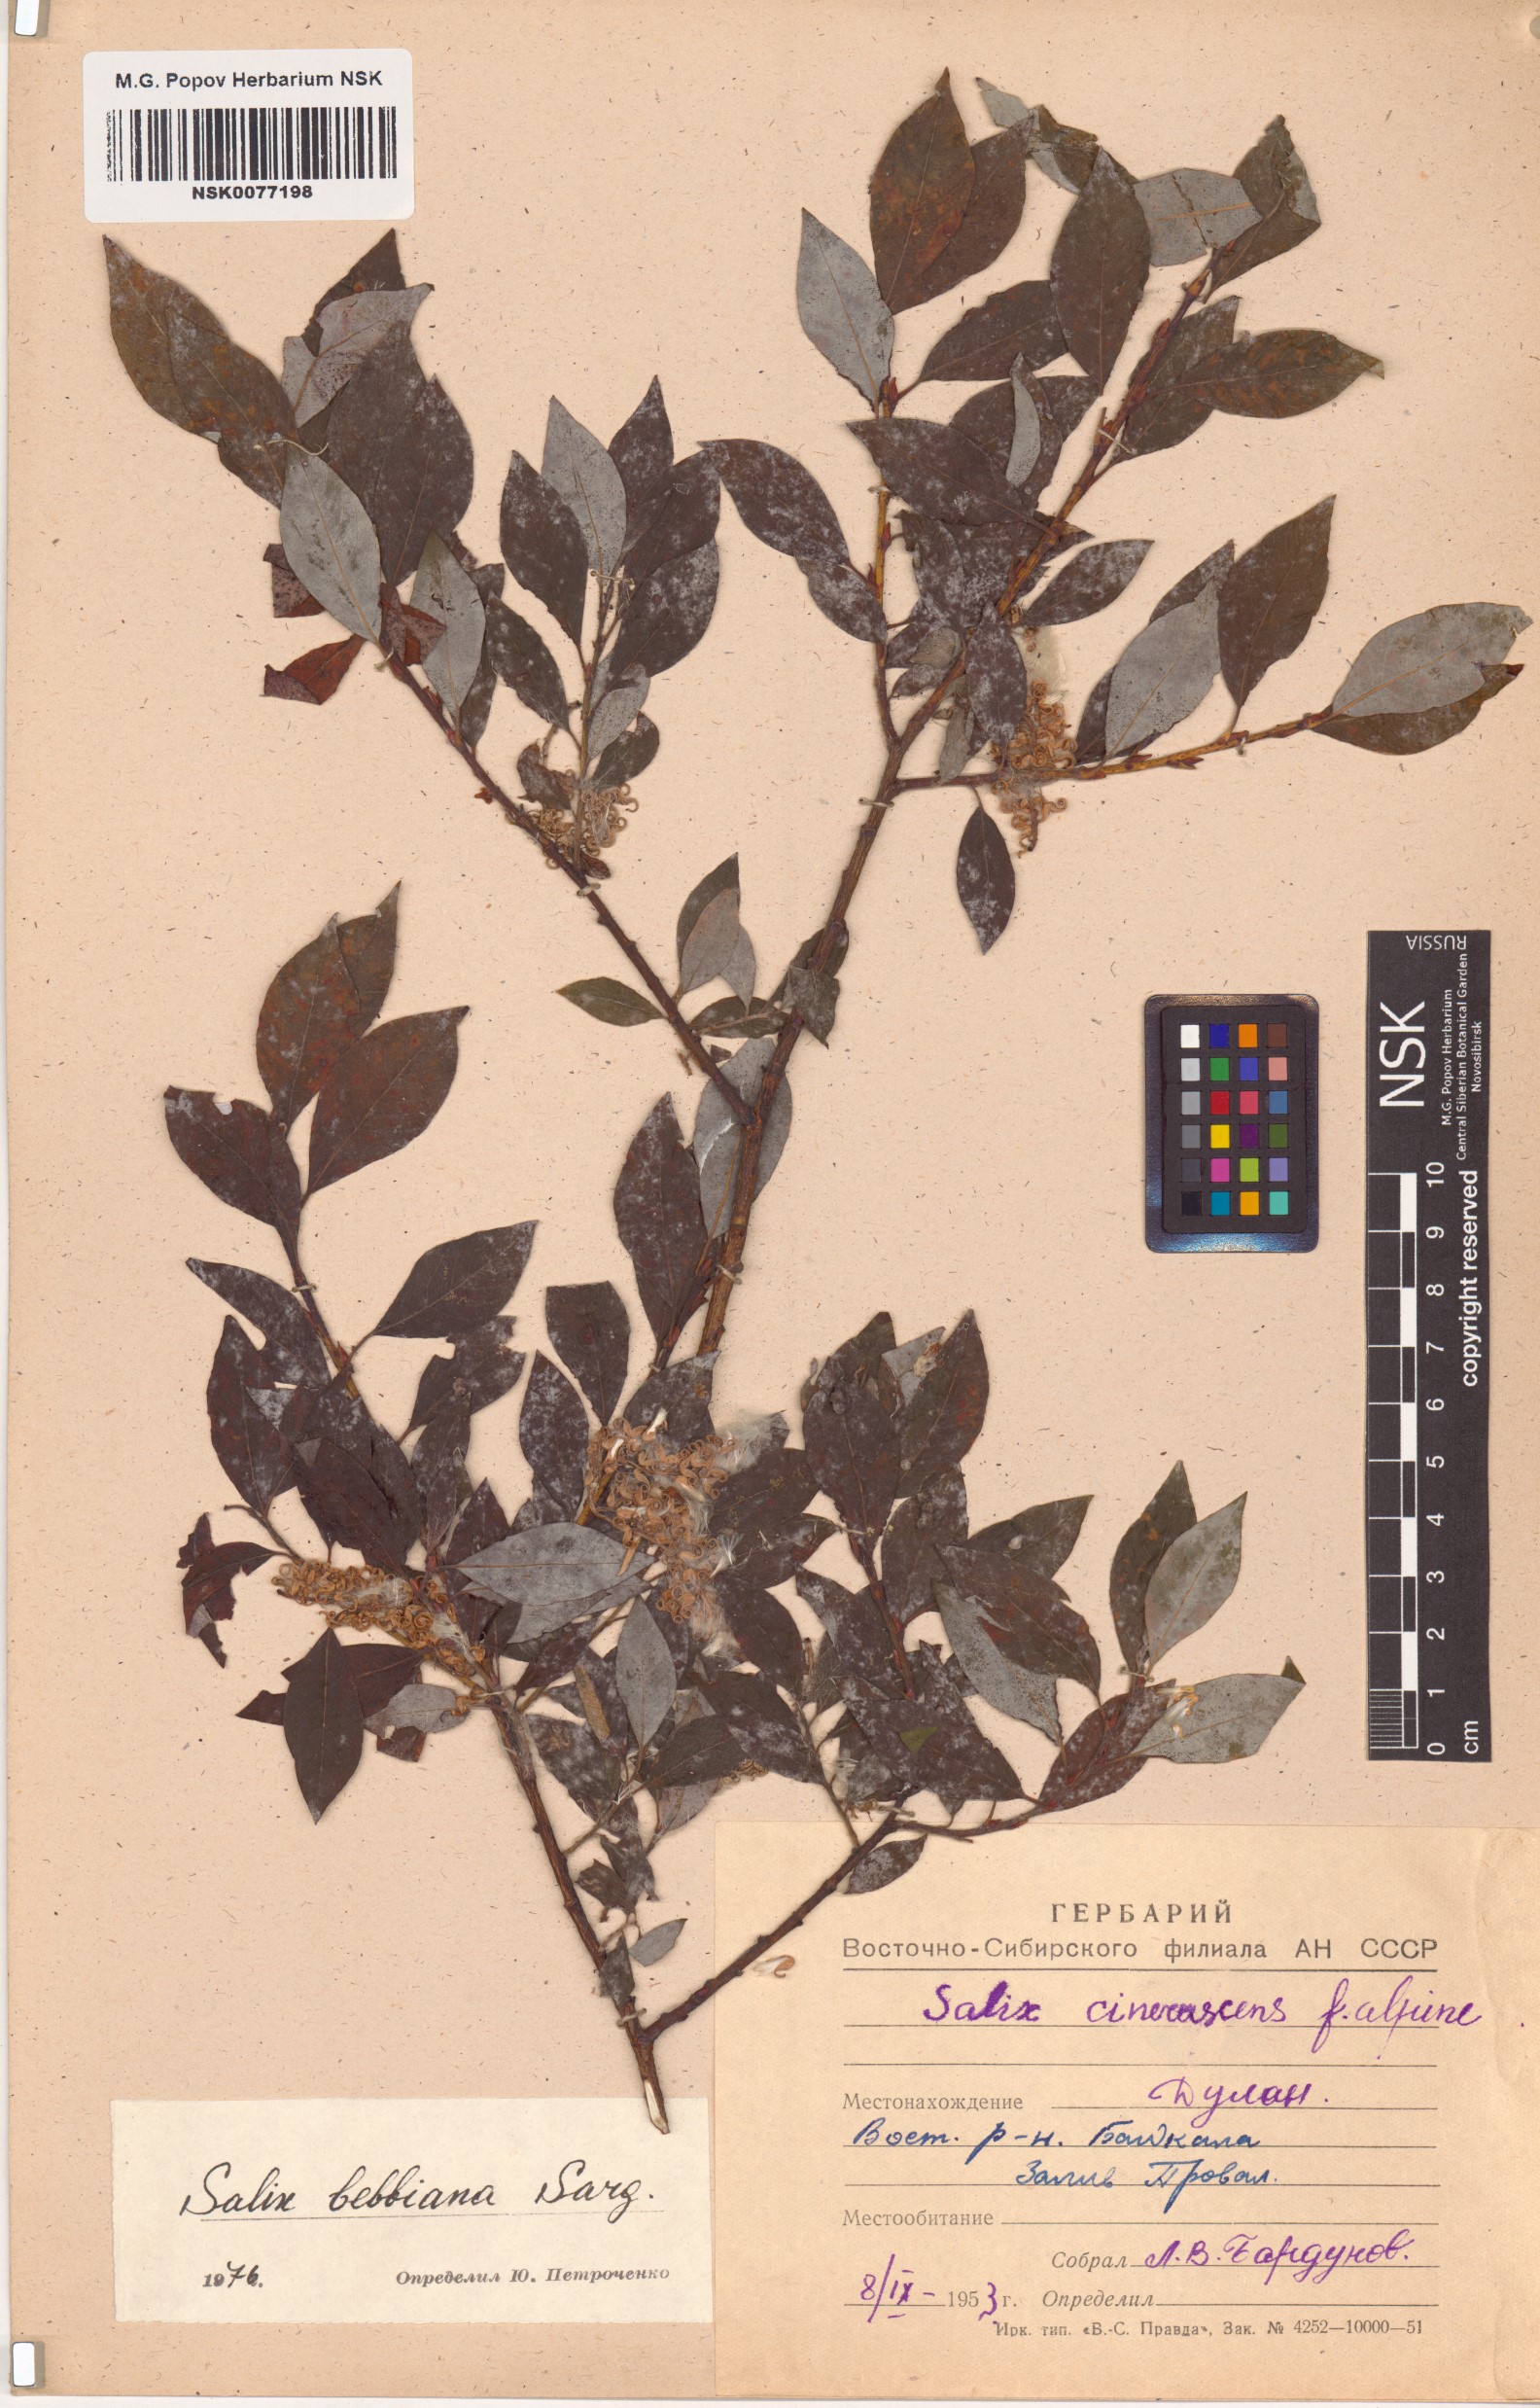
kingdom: Plantae
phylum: Tracheophyta
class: Magnoliopsida
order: Malpighiales
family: Salicaceae
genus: Salix
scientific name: Salix bebbiana
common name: Bebb's willow
